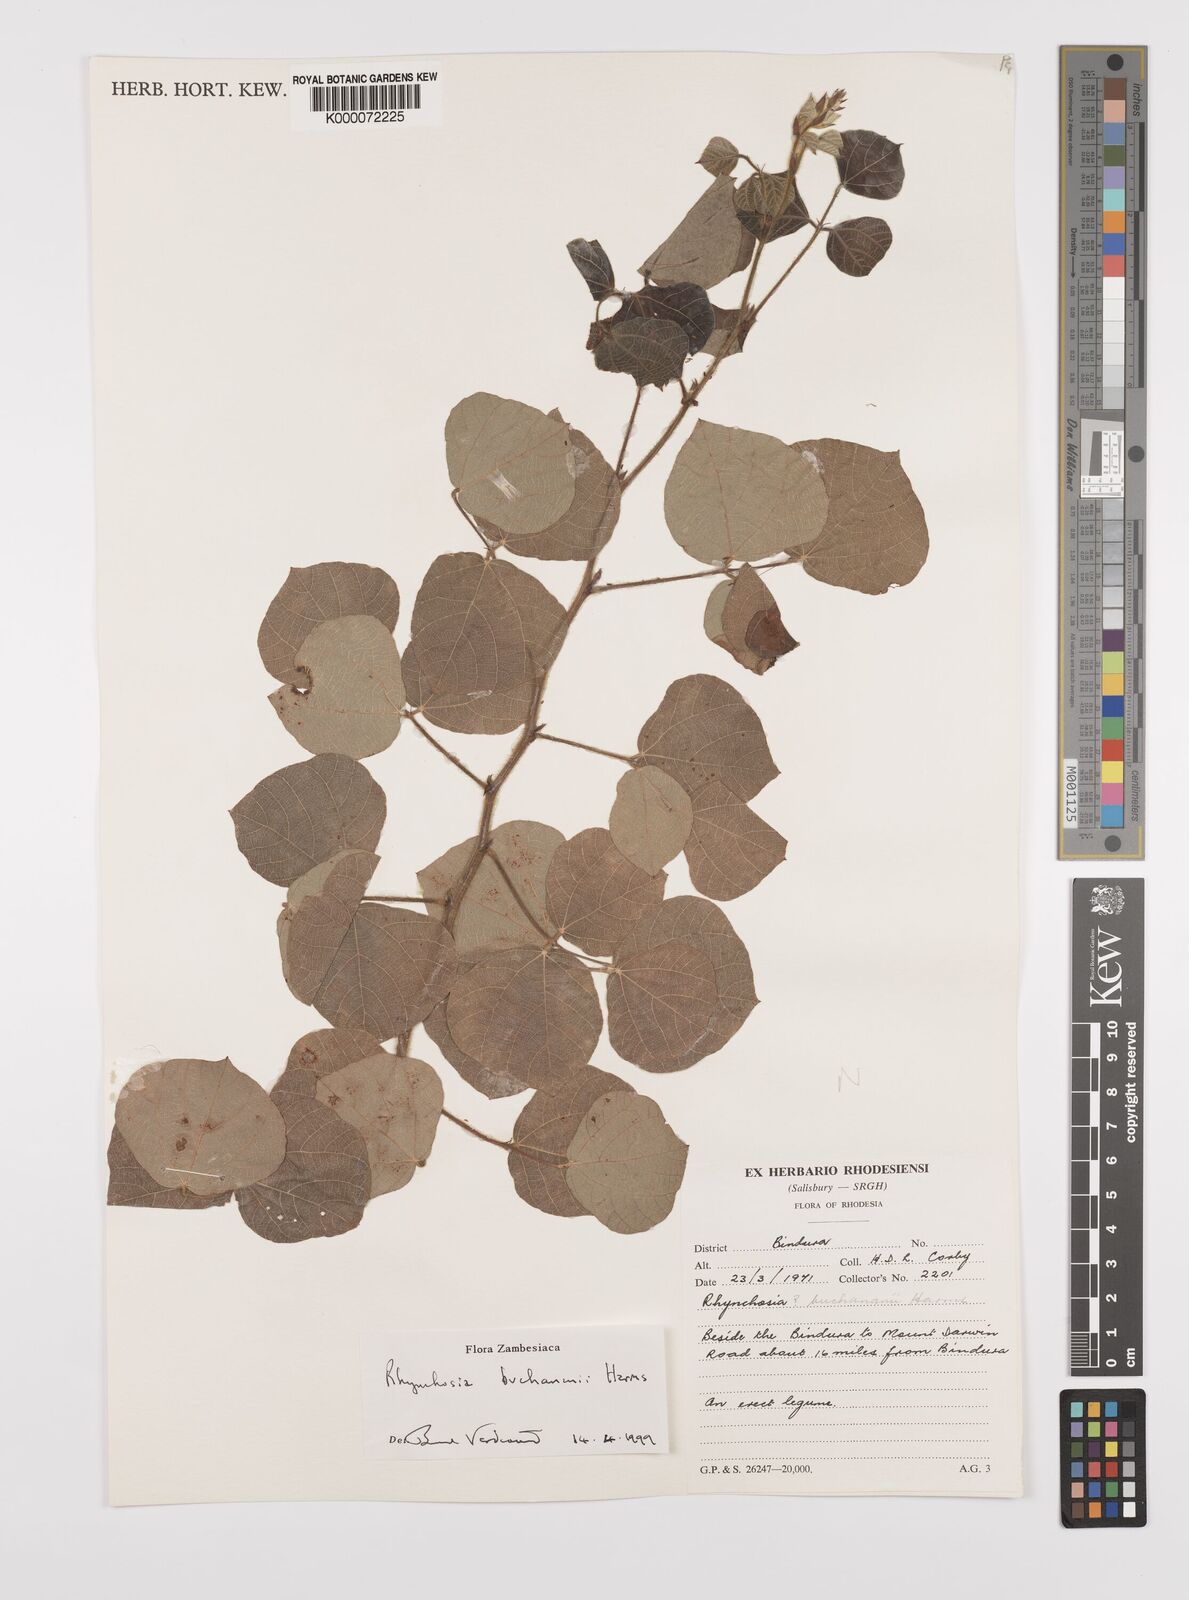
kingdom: Plantae
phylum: Tracheophyta
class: Magnoliopsida
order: Fabales
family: Fabaceae
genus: Rhynchosia
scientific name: Rhynchosia buchananii
